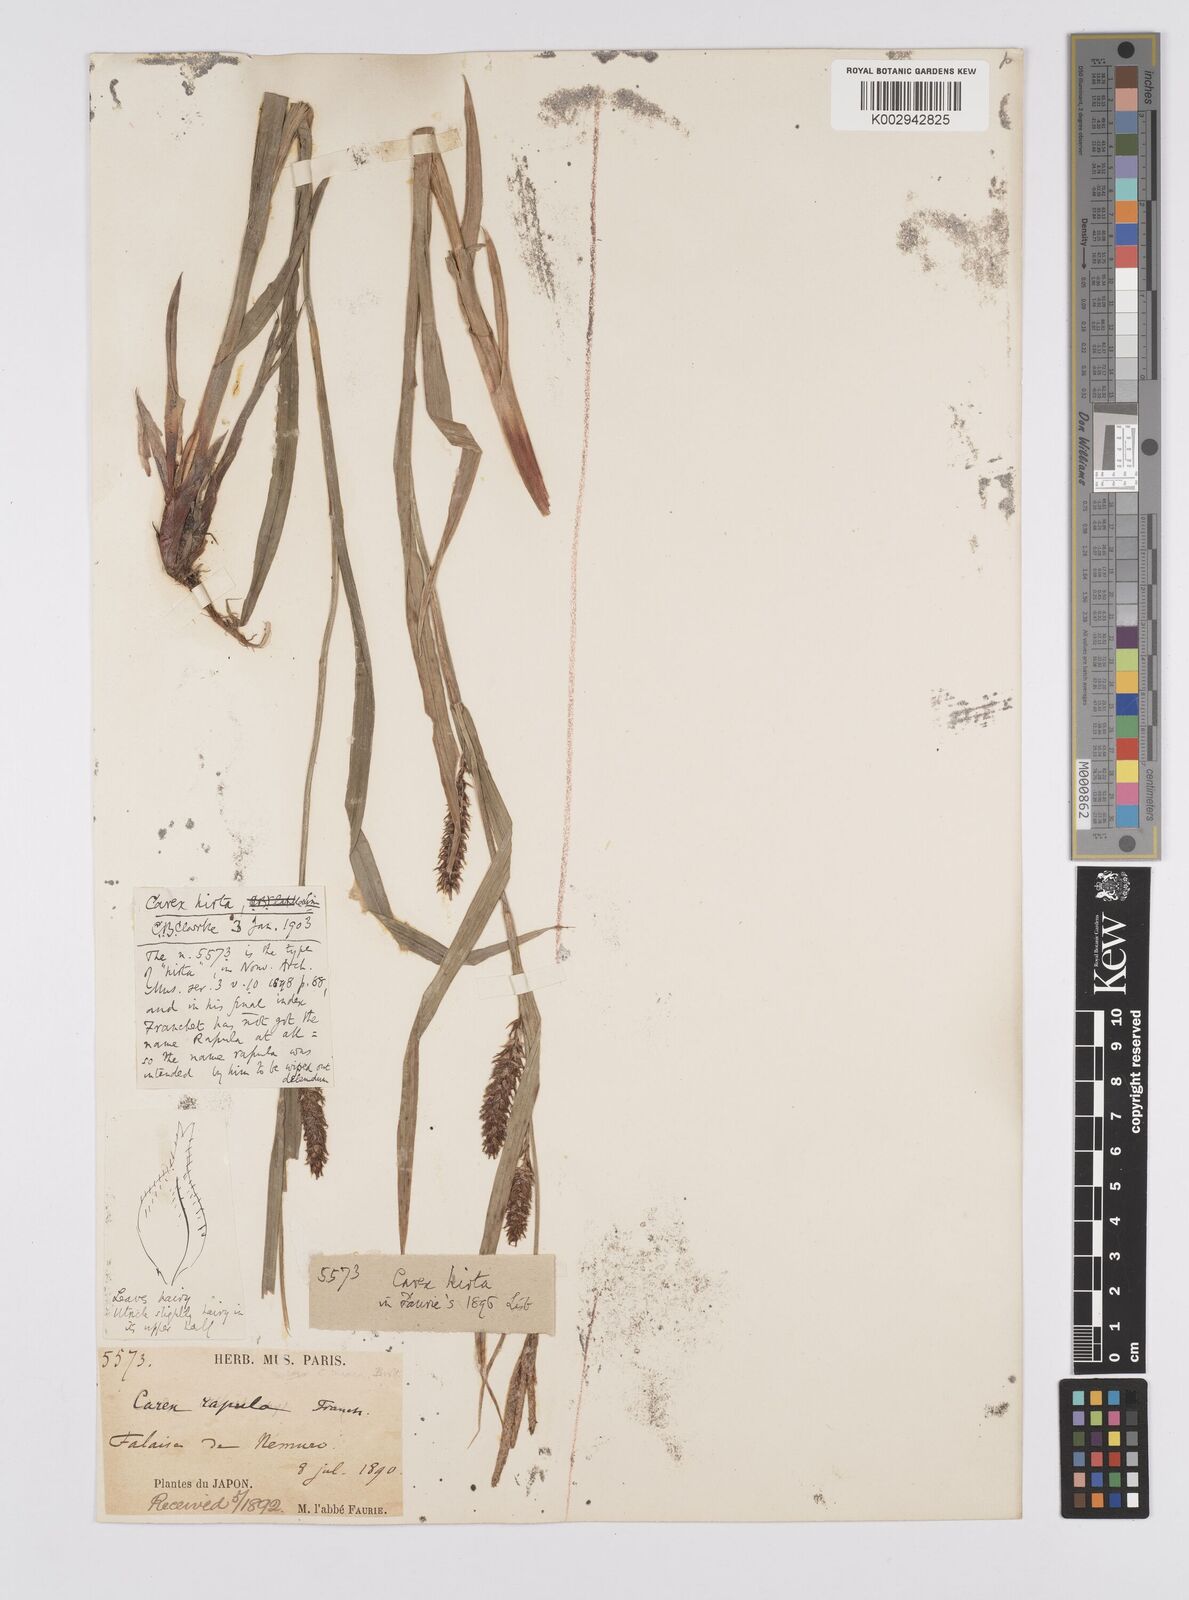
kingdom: Plantae
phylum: Tracheophyta
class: Liliopsida
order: Poales
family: Cyperaceae
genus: Carex
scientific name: Carex drymophila
